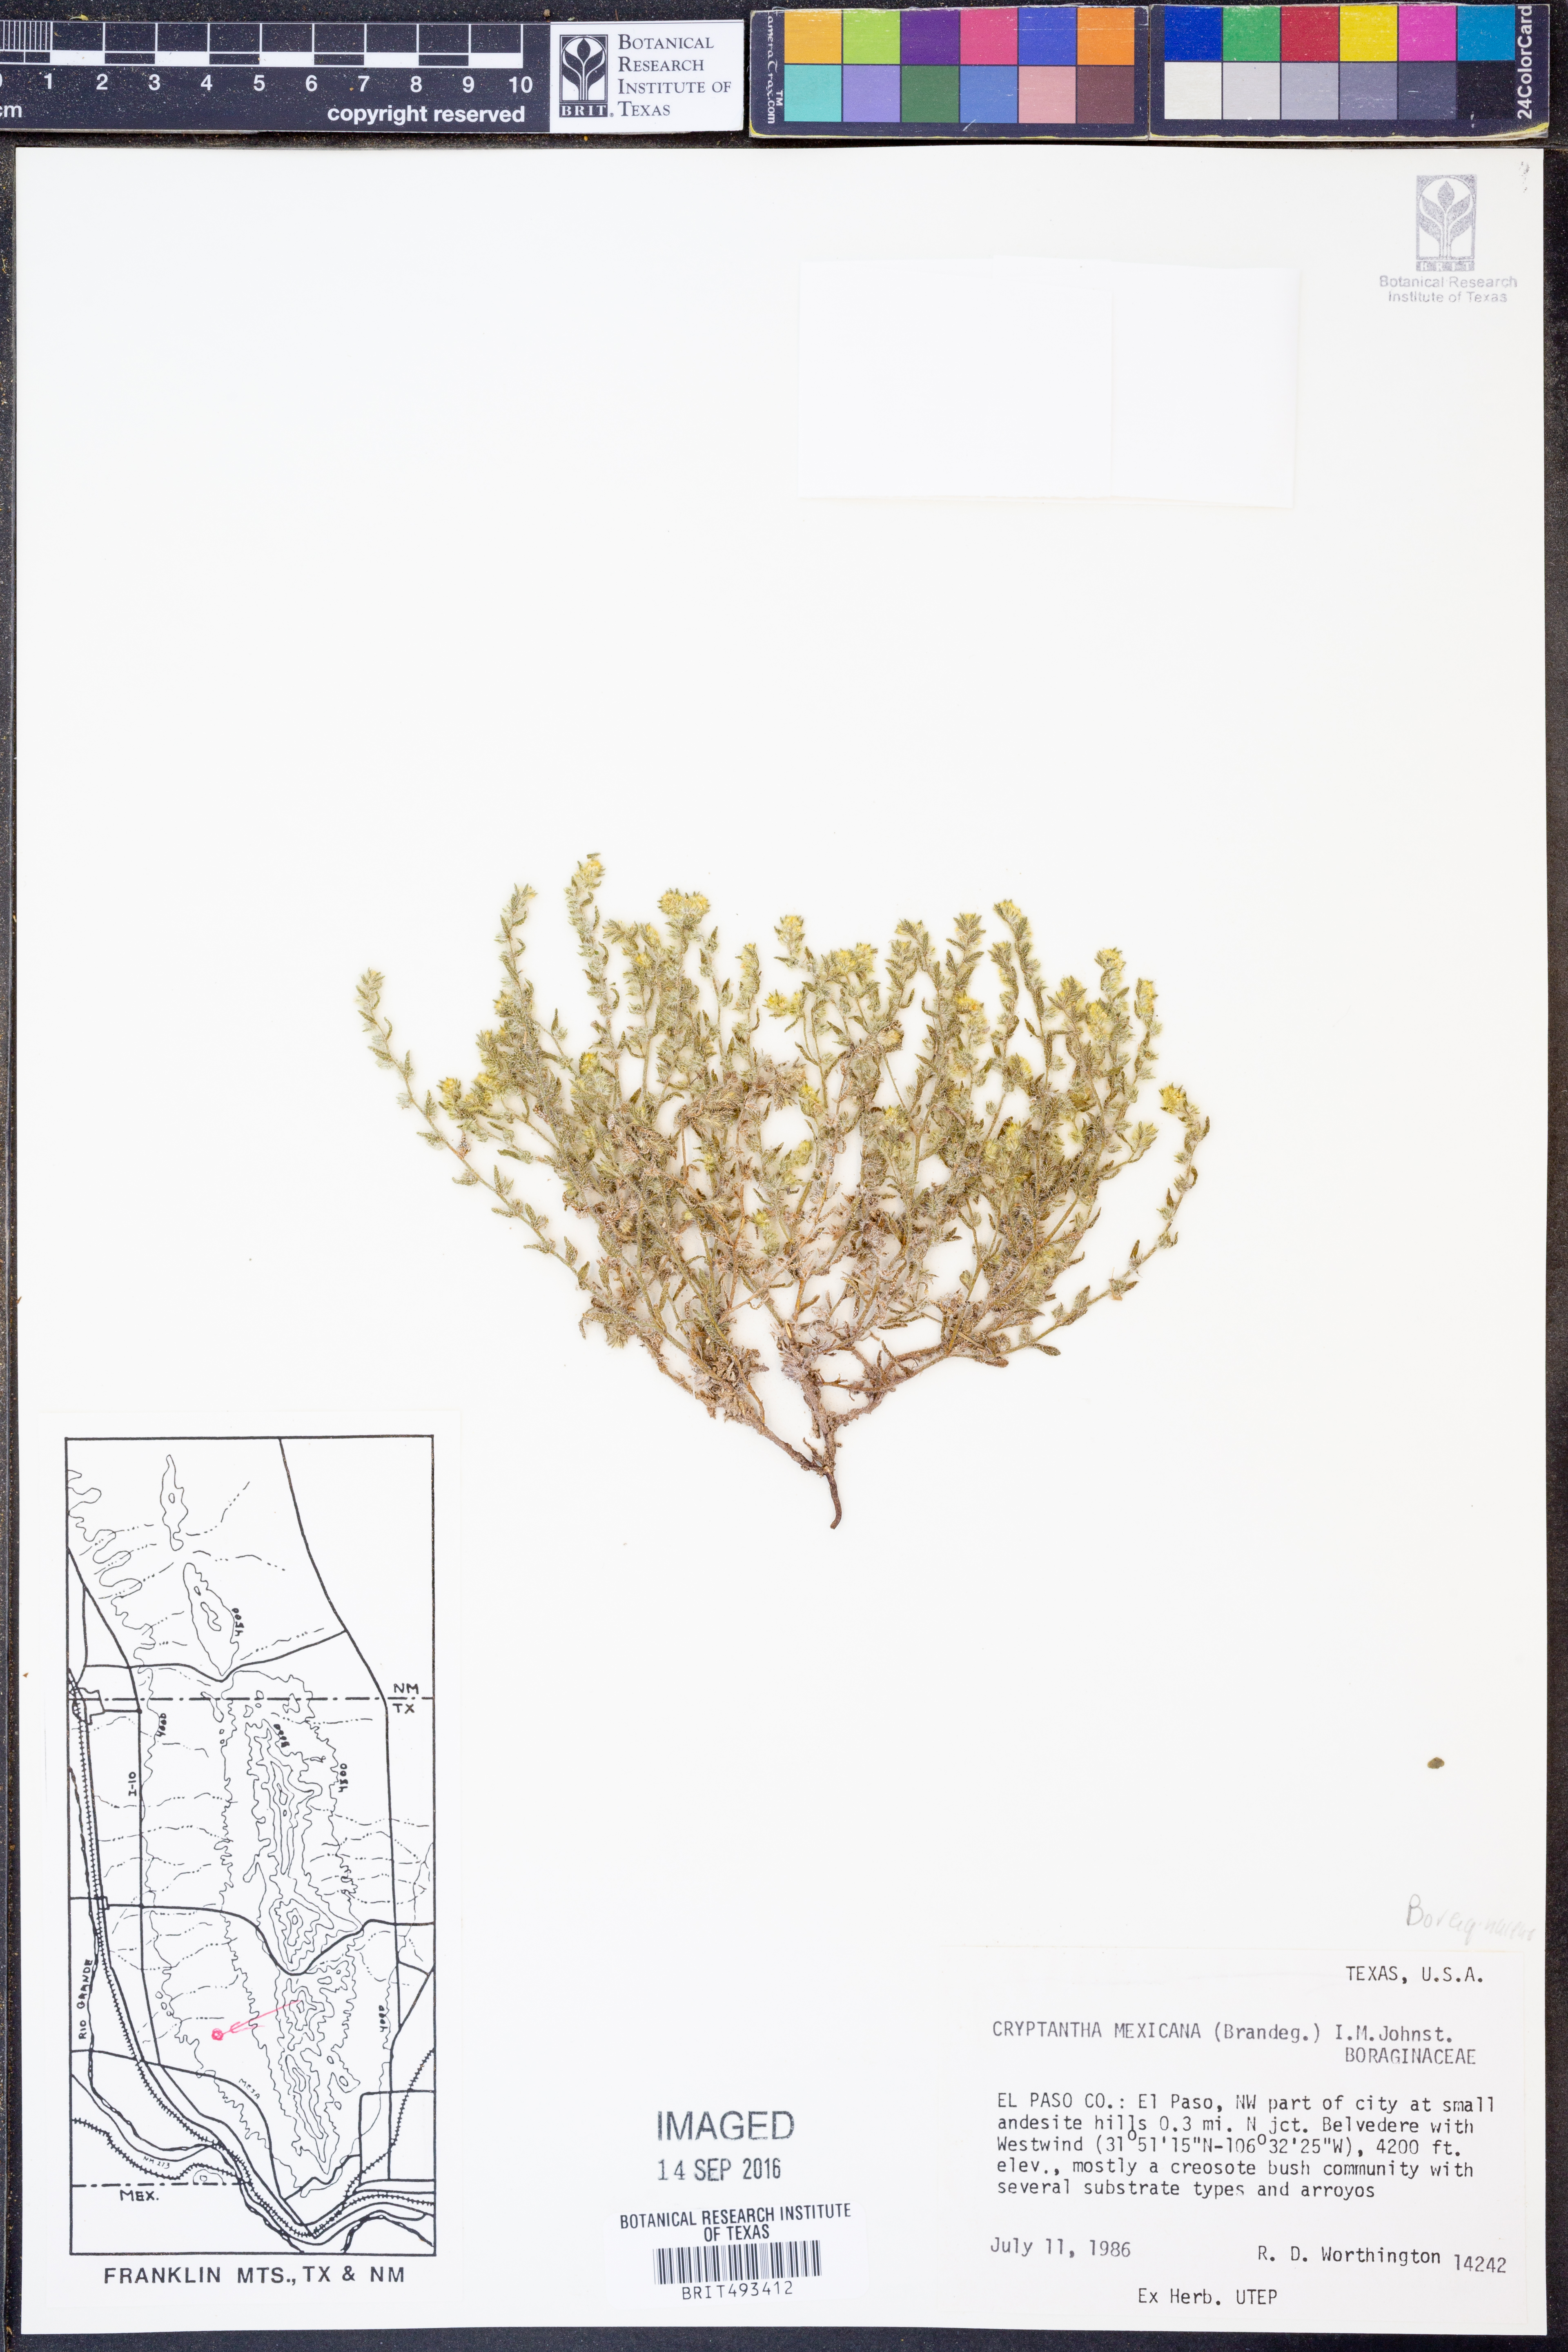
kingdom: Plantae
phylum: Tracheophyta
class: Magnoliopsida
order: Boraginales
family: Boraginaceae
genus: Johnstonella
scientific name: Johnstonella mexicana
